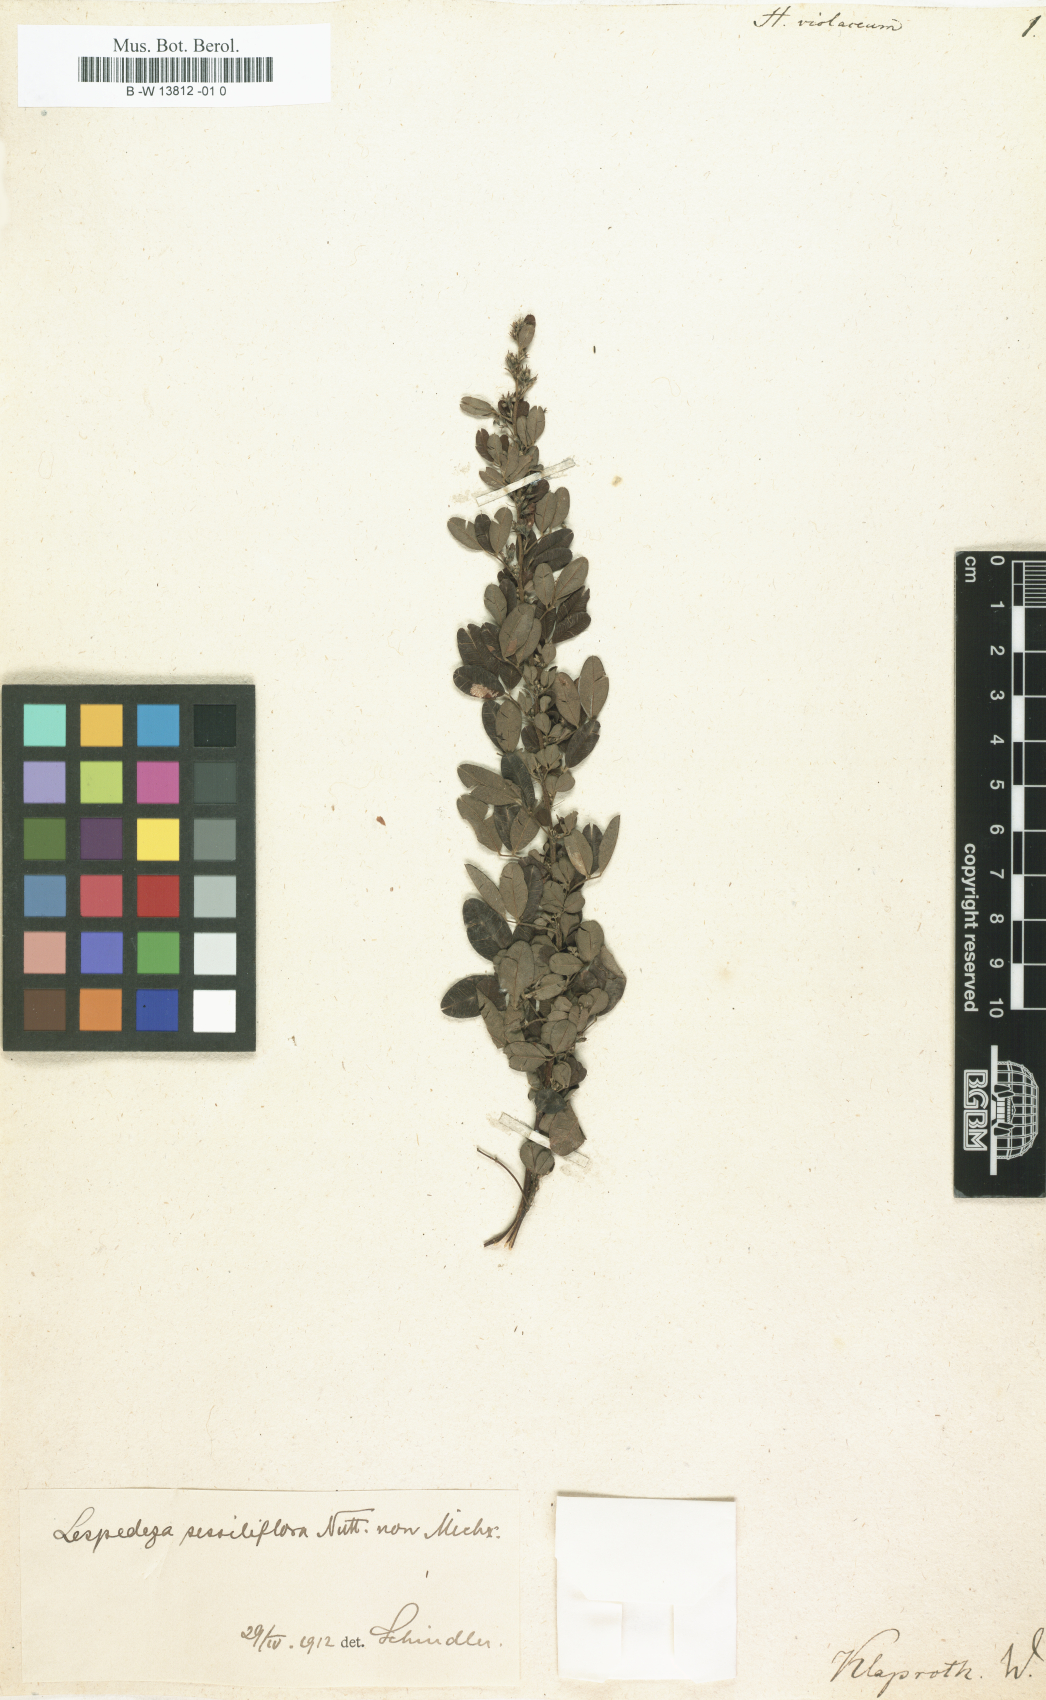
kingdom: Plantae
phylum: Tracheophyta
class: Magnoliopsida
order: Fabales
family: Fabaceae
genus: Lespedeza
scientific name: Lespedeza violacea
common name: Wand bush-clover
